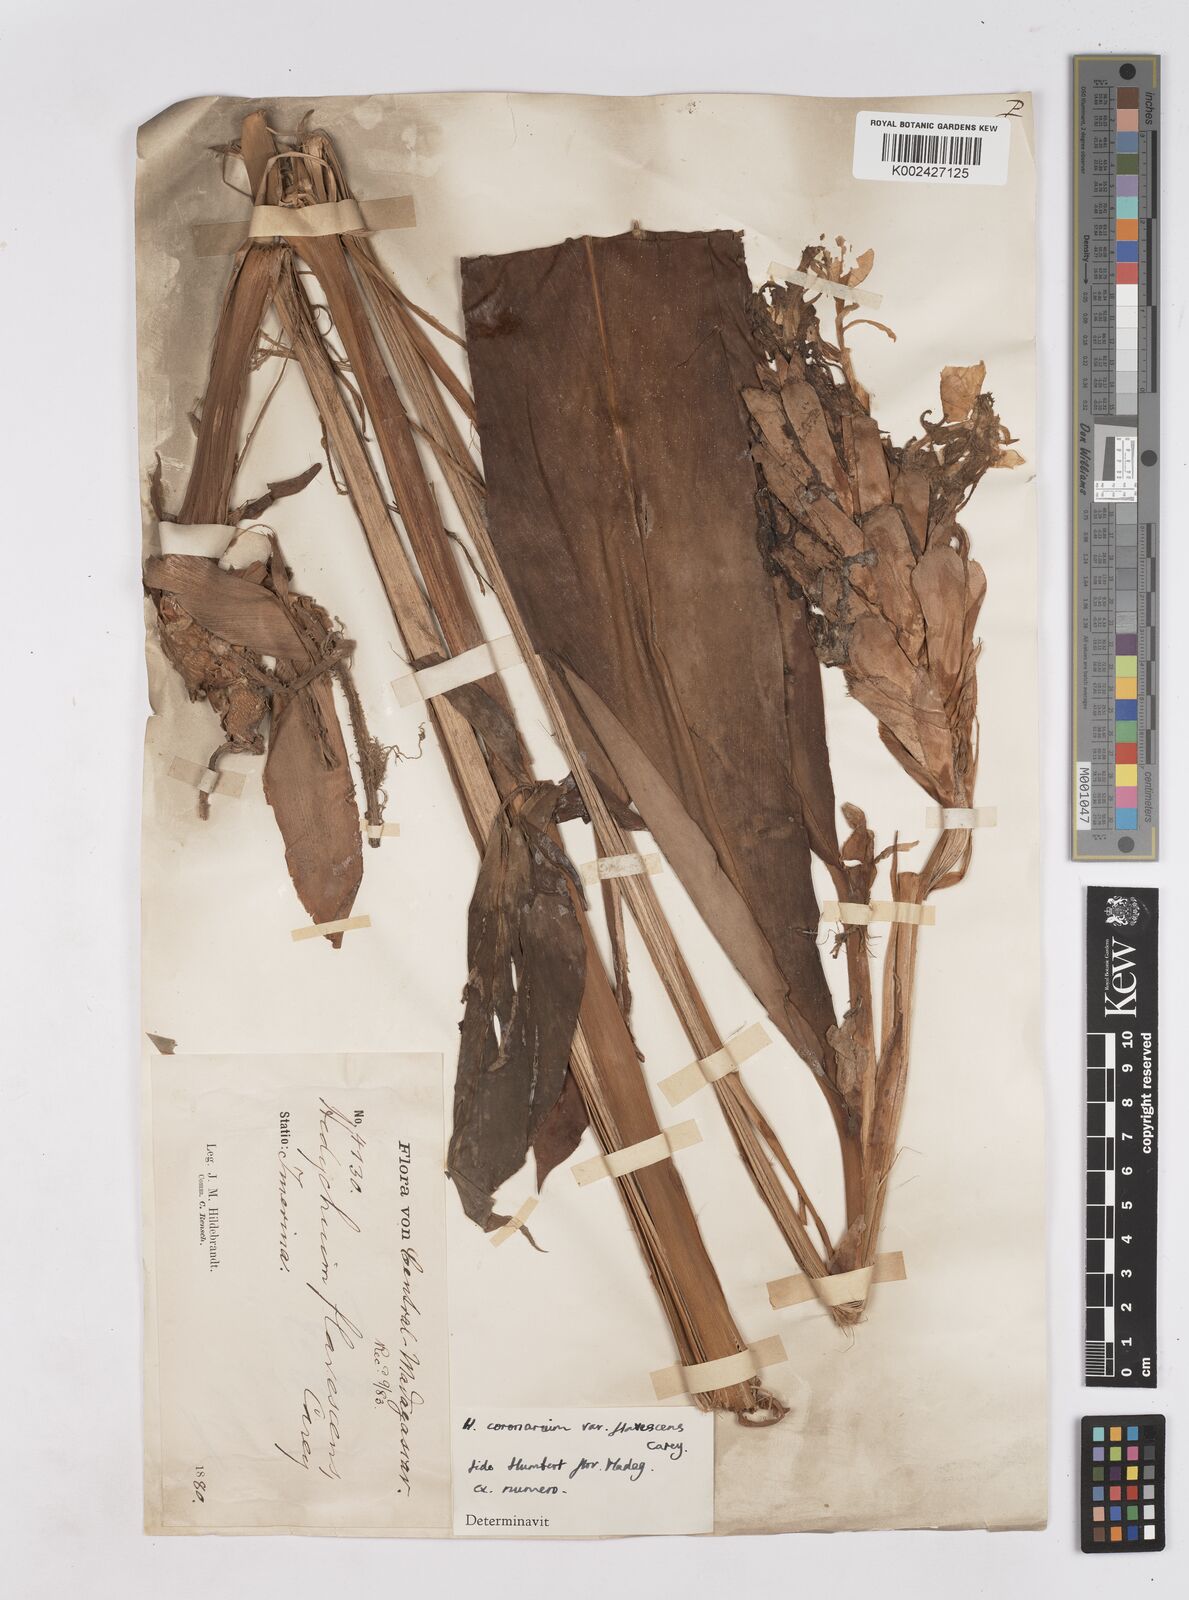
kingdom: Plantae
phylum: Tracheophyta
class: Liliopsida
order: Zingiberales
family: Zingiberaceae
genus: Hedychium
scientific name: Hedychium coronarium
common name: White garland-lily
